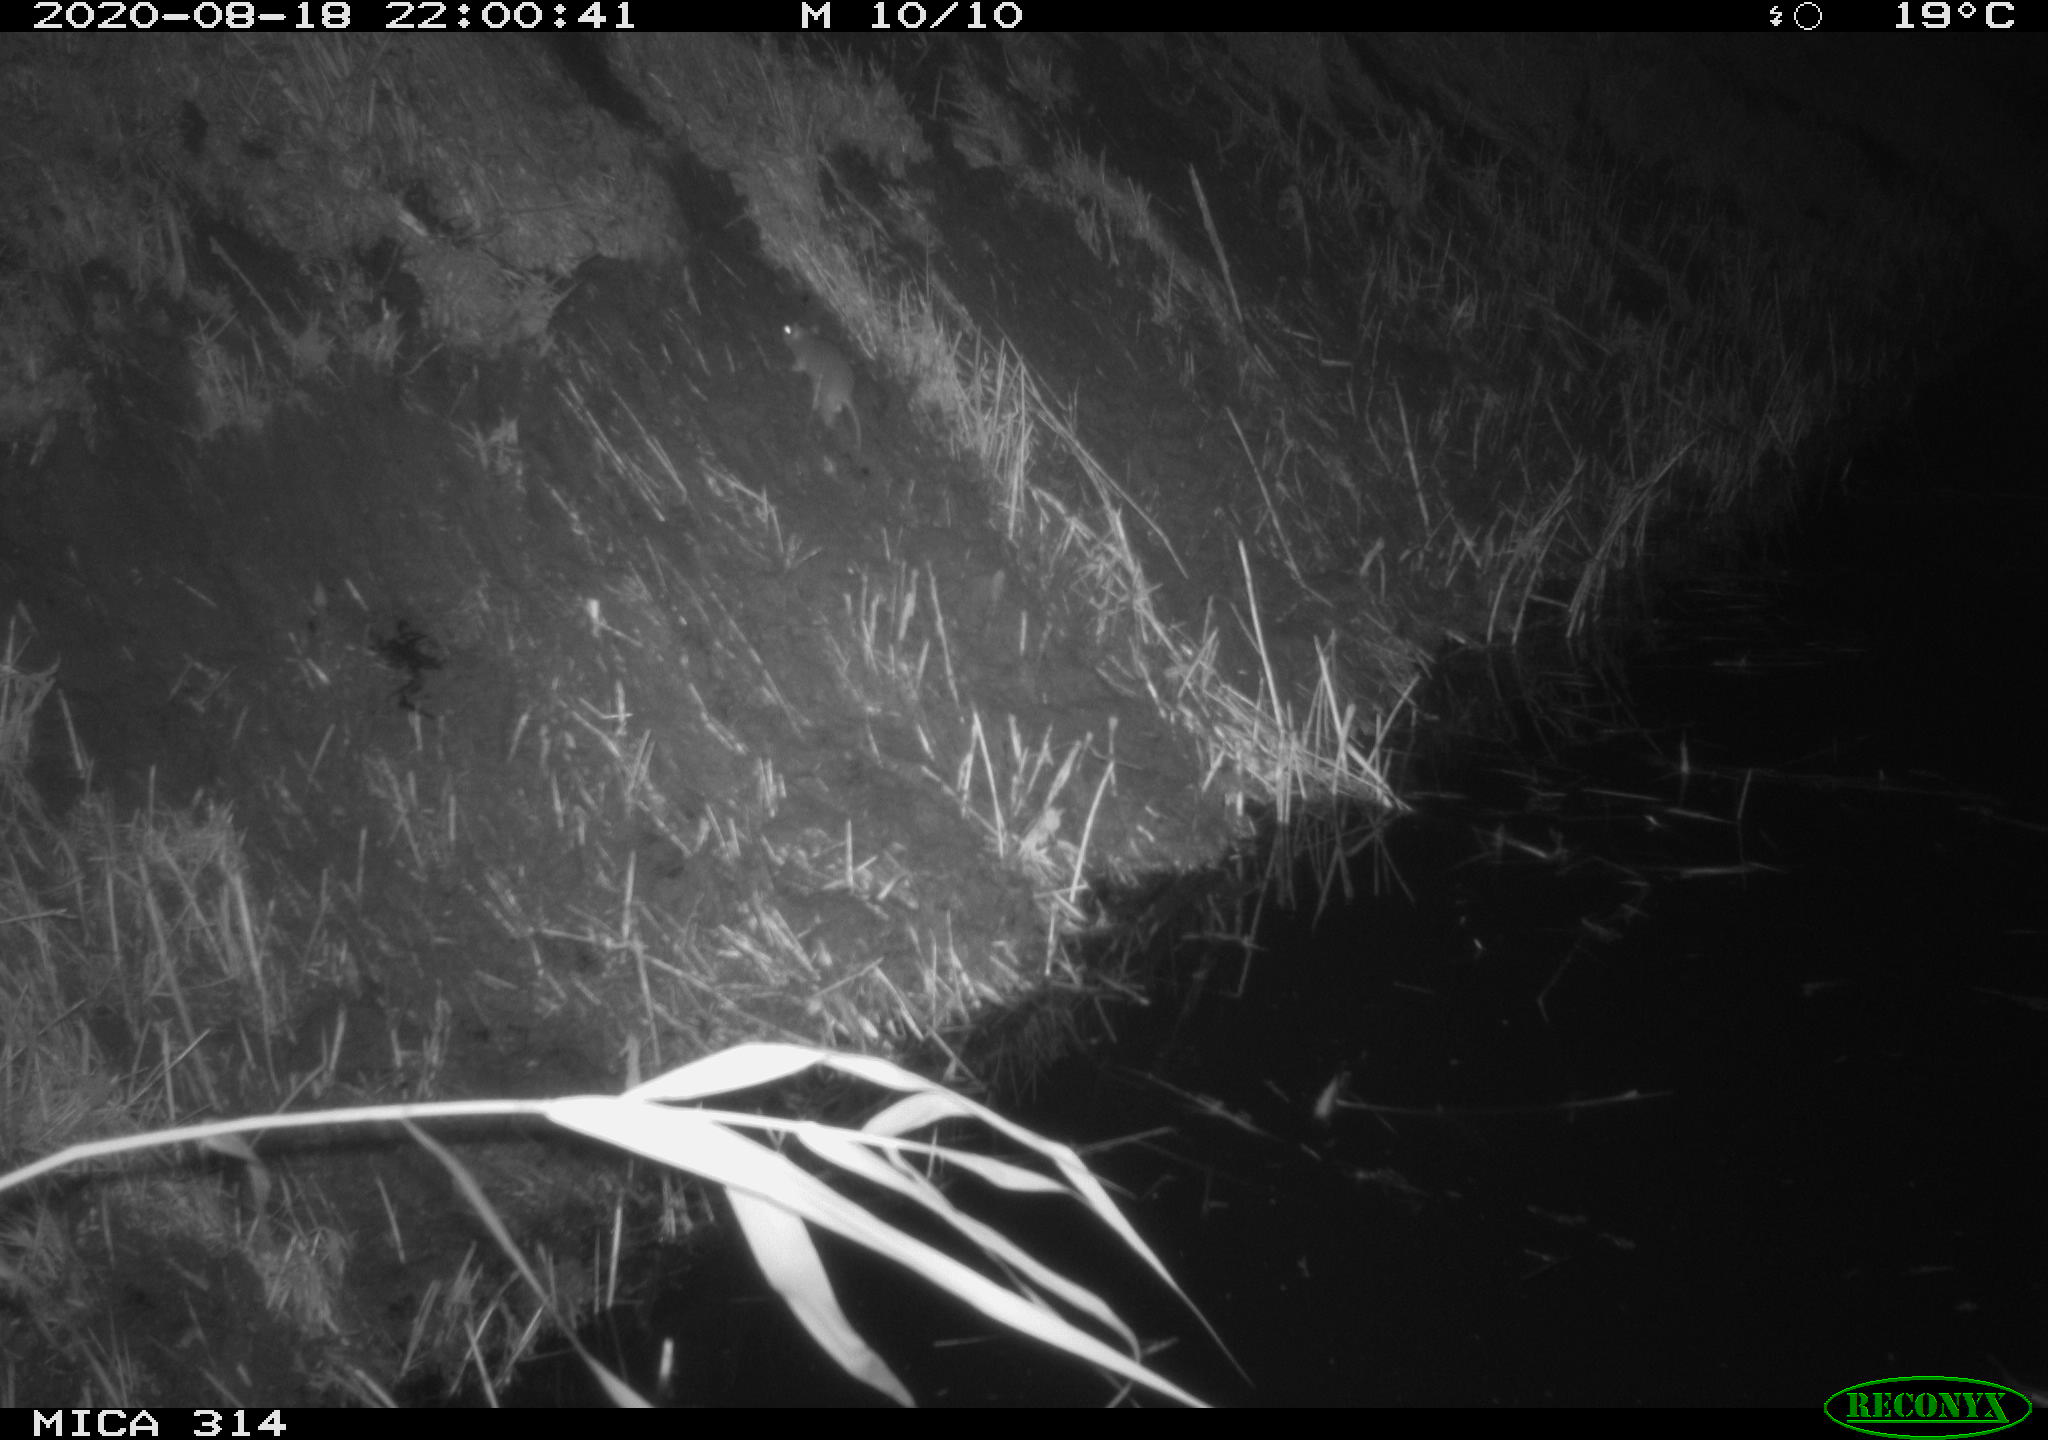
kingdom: Animalia
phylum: Chordata
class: Mammalia
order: Rodentia
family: Muridae
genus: Rattus
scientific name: Rattus norvegicus
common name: Brown rat
